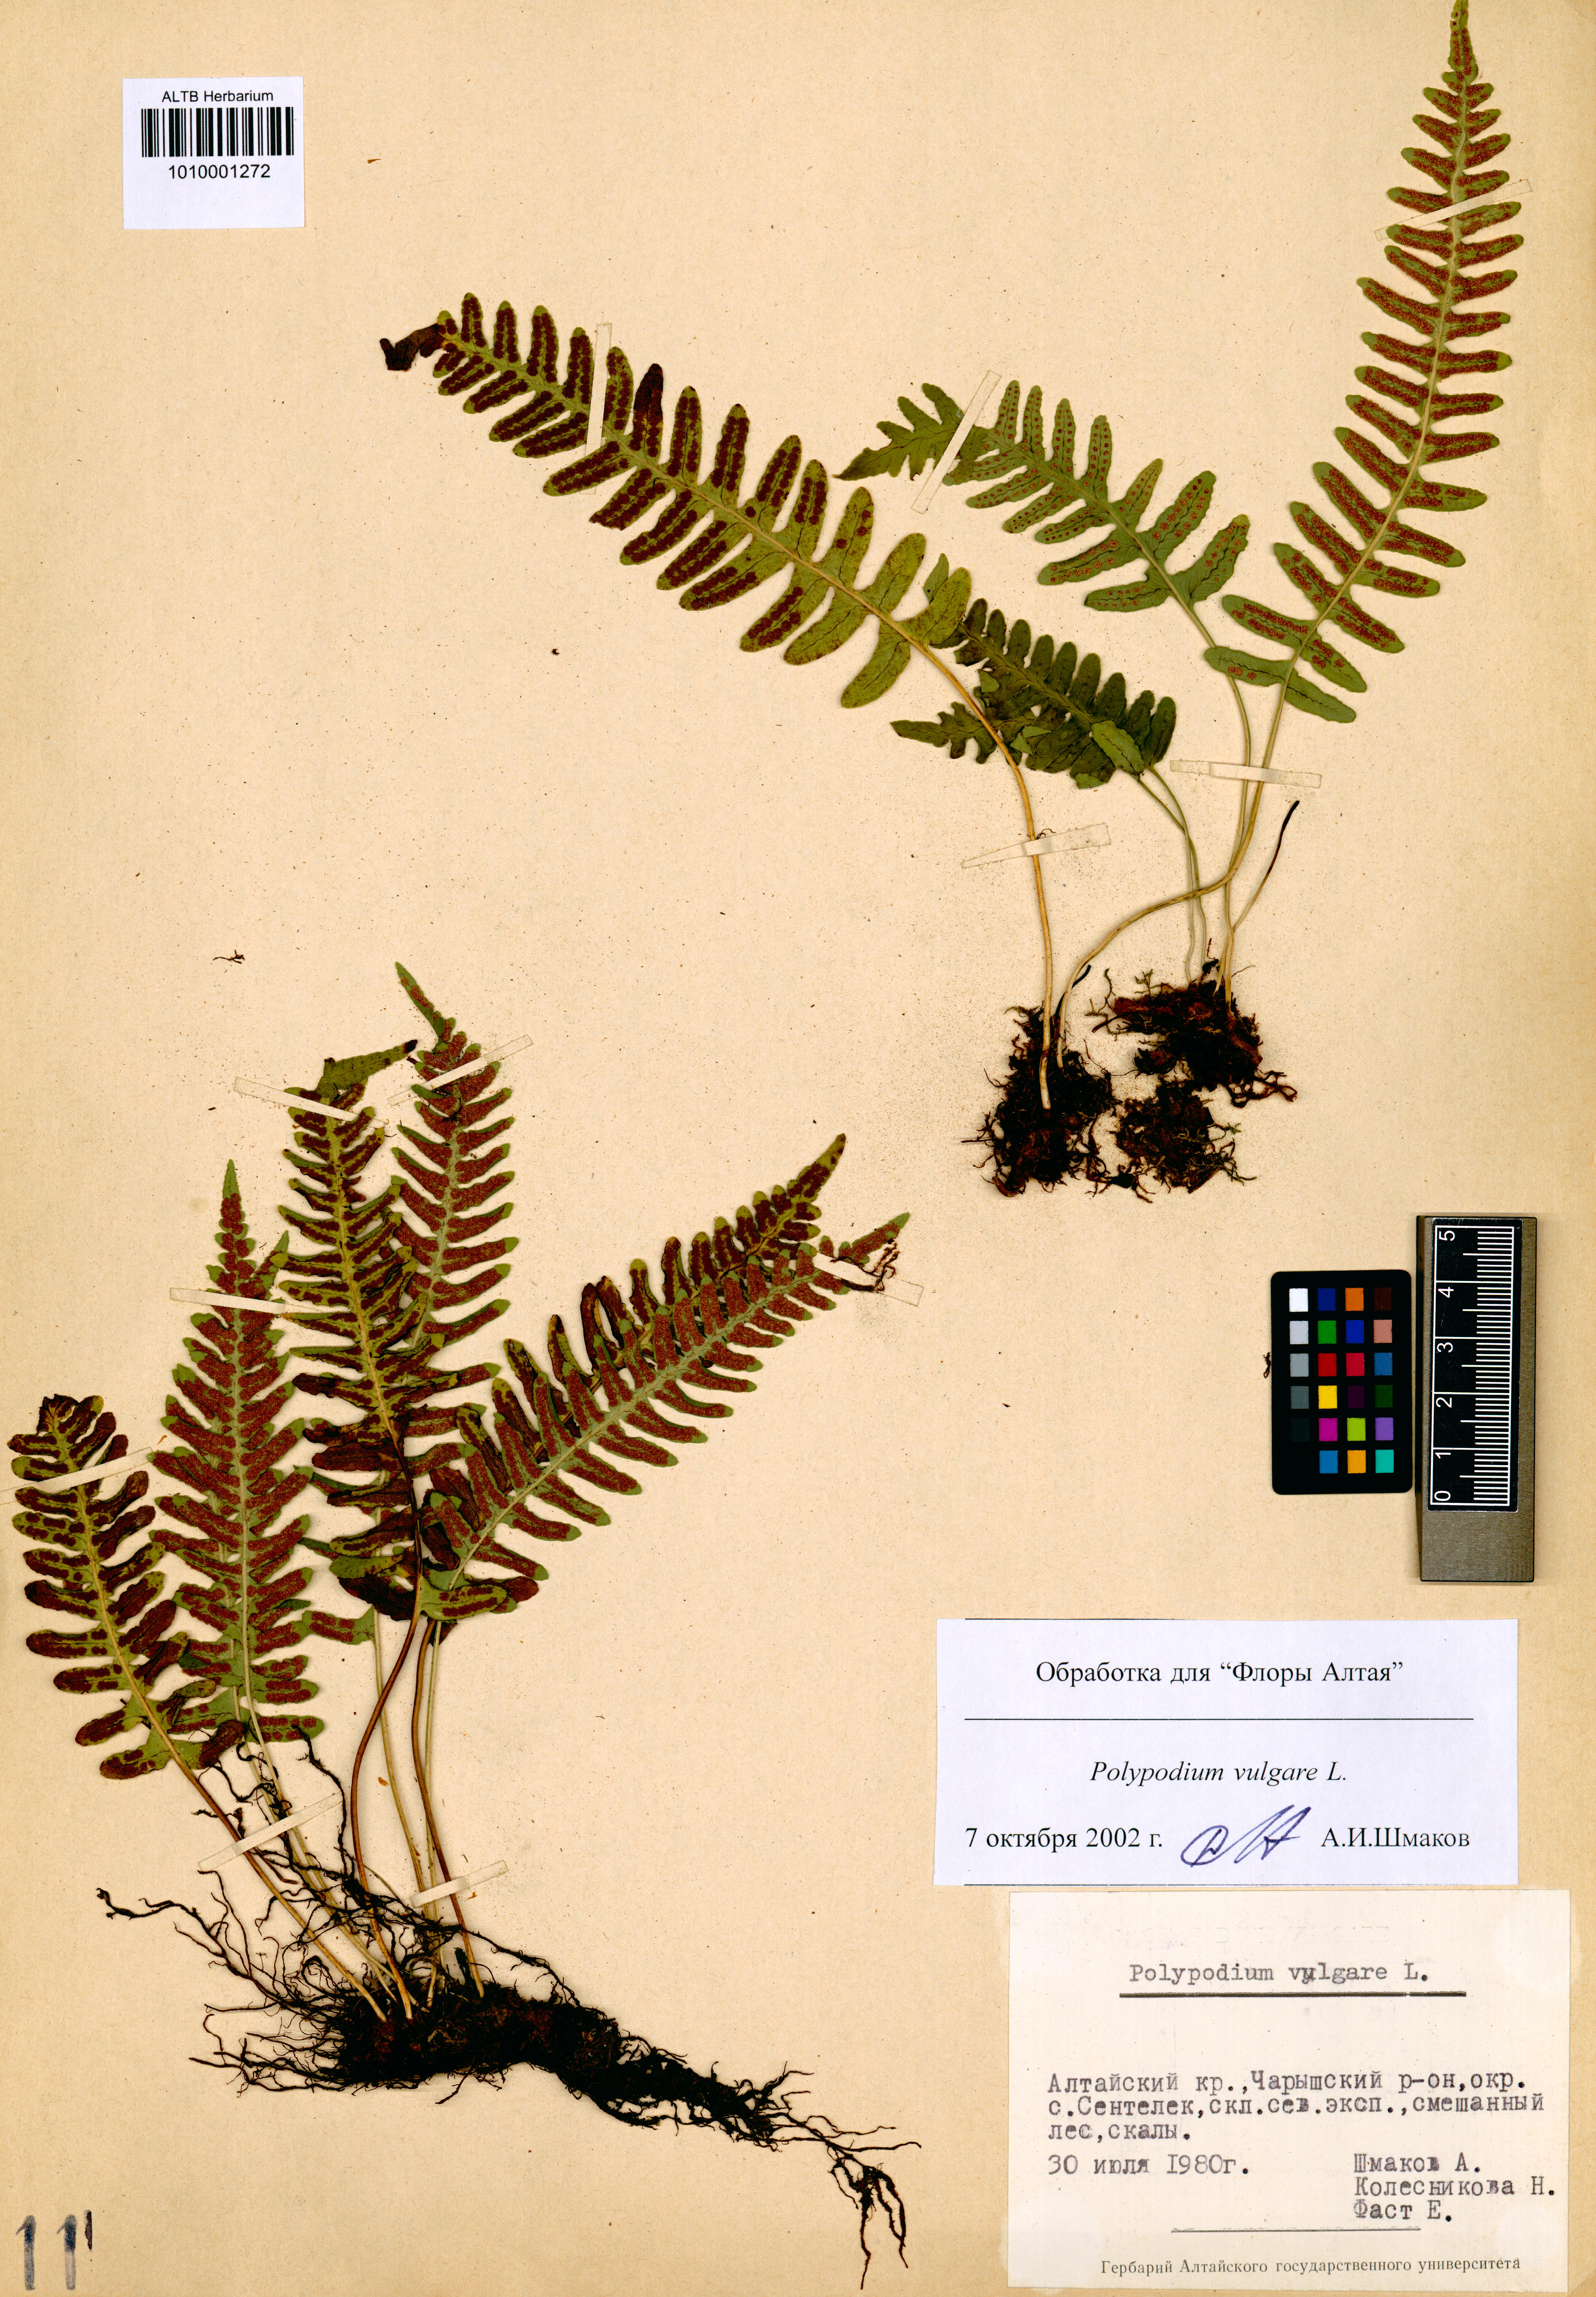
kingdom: Plantae
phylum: Tracheophyta
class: Polypodiopsida
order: Polypodiales
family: Polypodiaceae
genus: Polypodium
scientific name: Polypodium vulgare
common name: Common polypody
